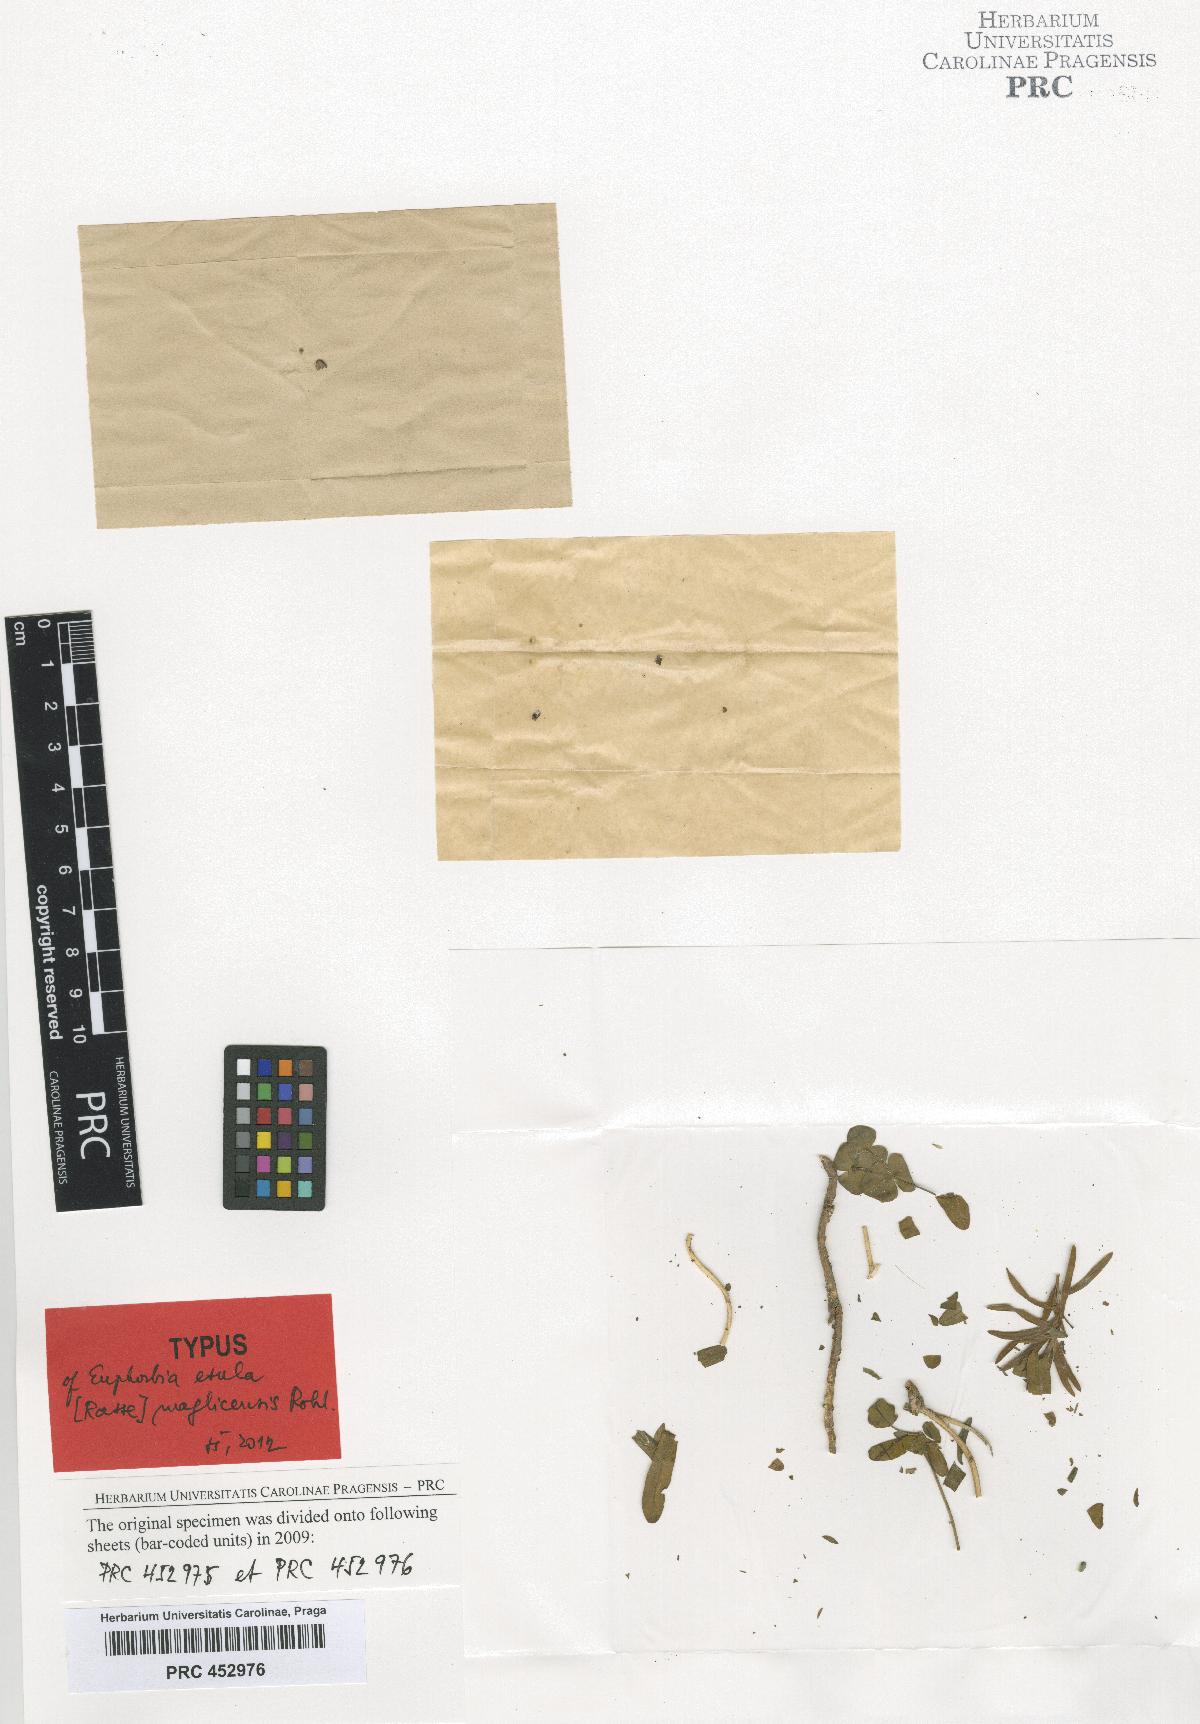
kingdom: Plantae
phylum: Tracheophyta
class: Magnoliopsida
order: Malpighiales
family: Euphorbiaceae
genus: Euphorbia
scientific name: Euphorbia esula
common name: Leafy spurge
